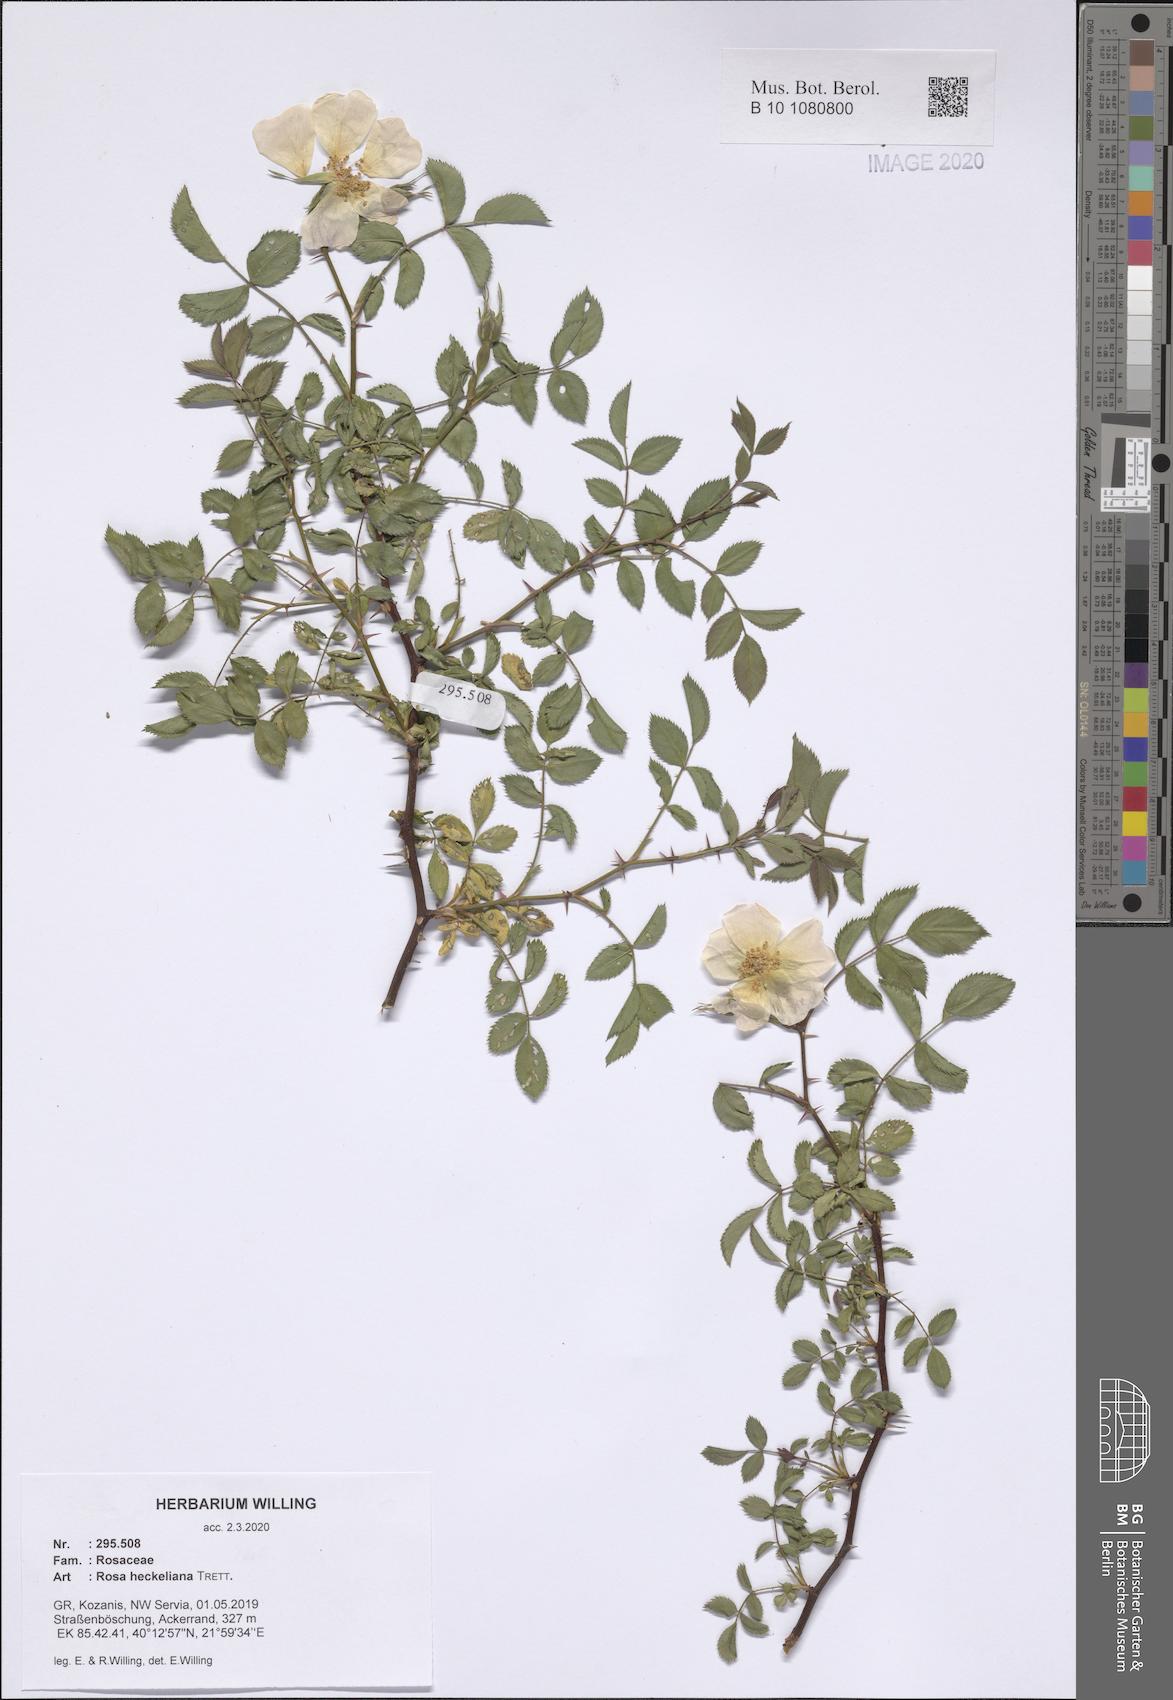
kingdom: Plantae
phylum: Tracheophyta
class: Magnoliopsida
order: Rosales
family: Rosaceae
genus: Rosa
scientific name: Rosa heckeliana
